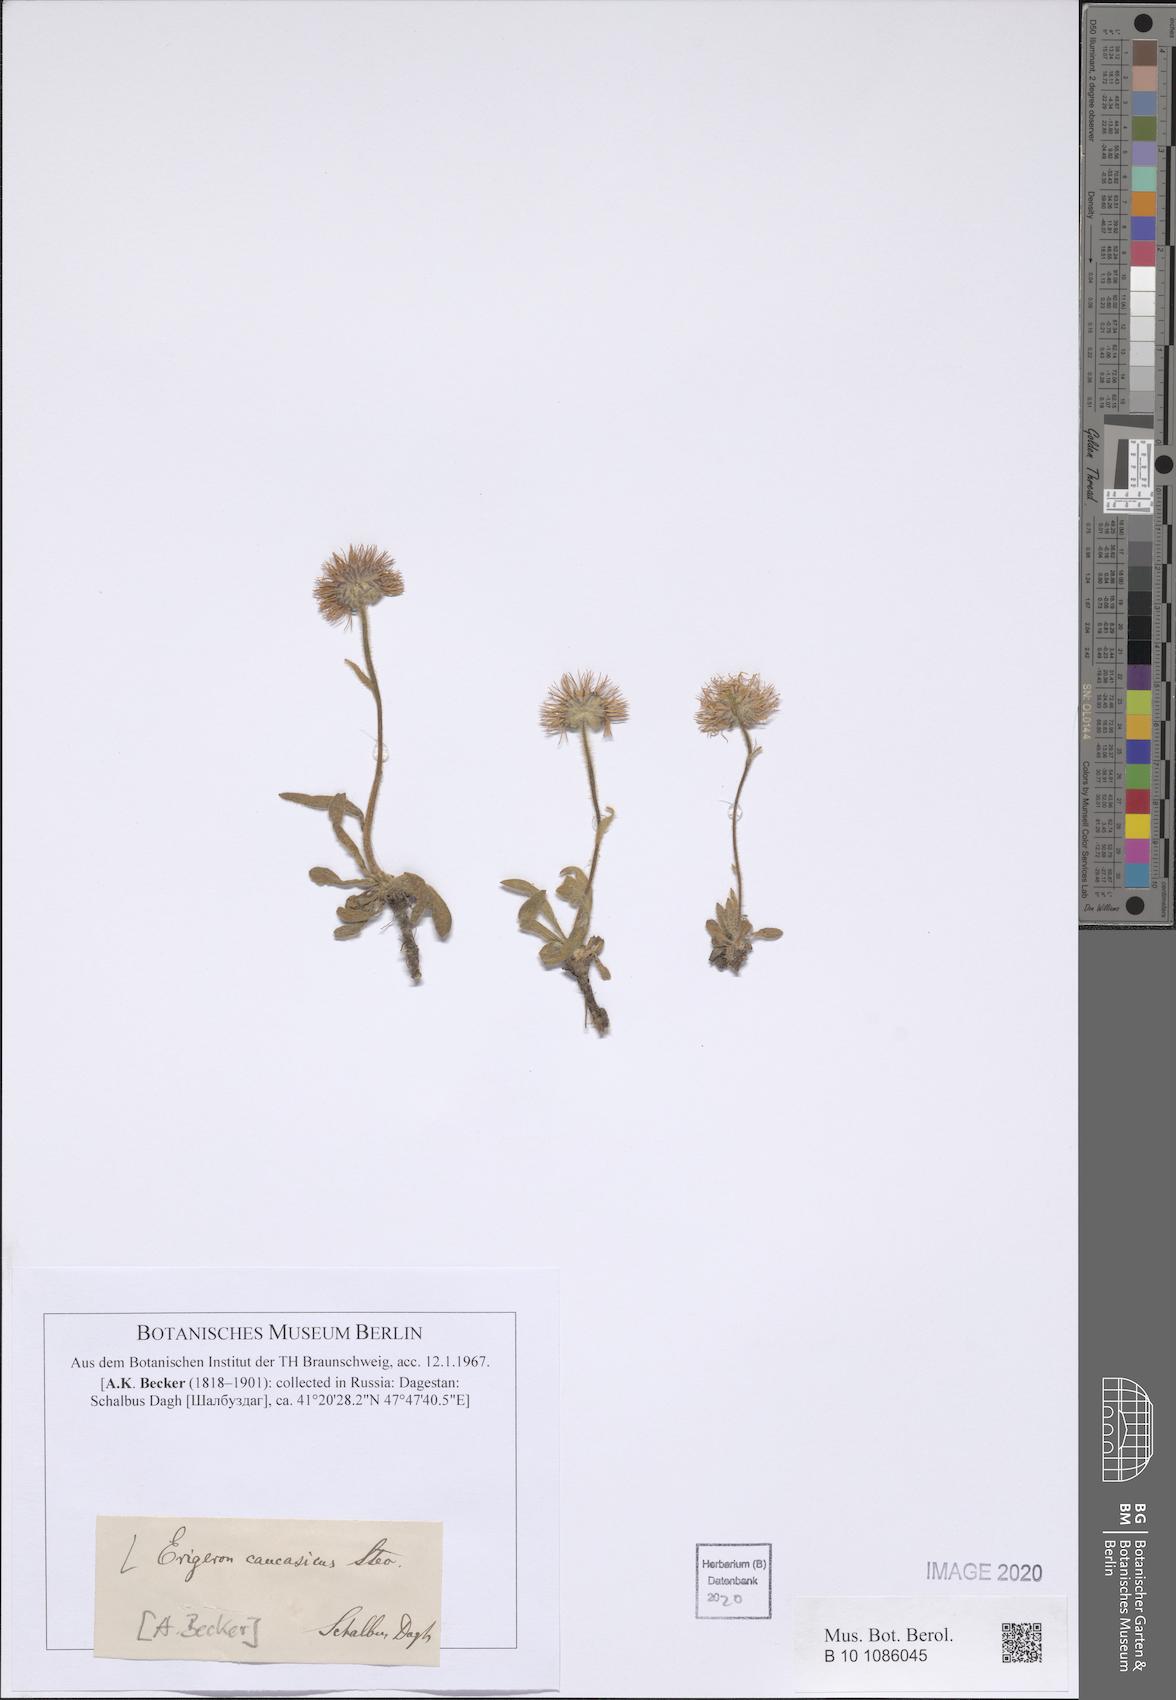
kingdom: Plantae
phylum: Tracheophyta
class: Magnoliopsida
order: Asterales
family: Asteraceae
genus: Erigeron
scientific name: Erigeron caucasicus
